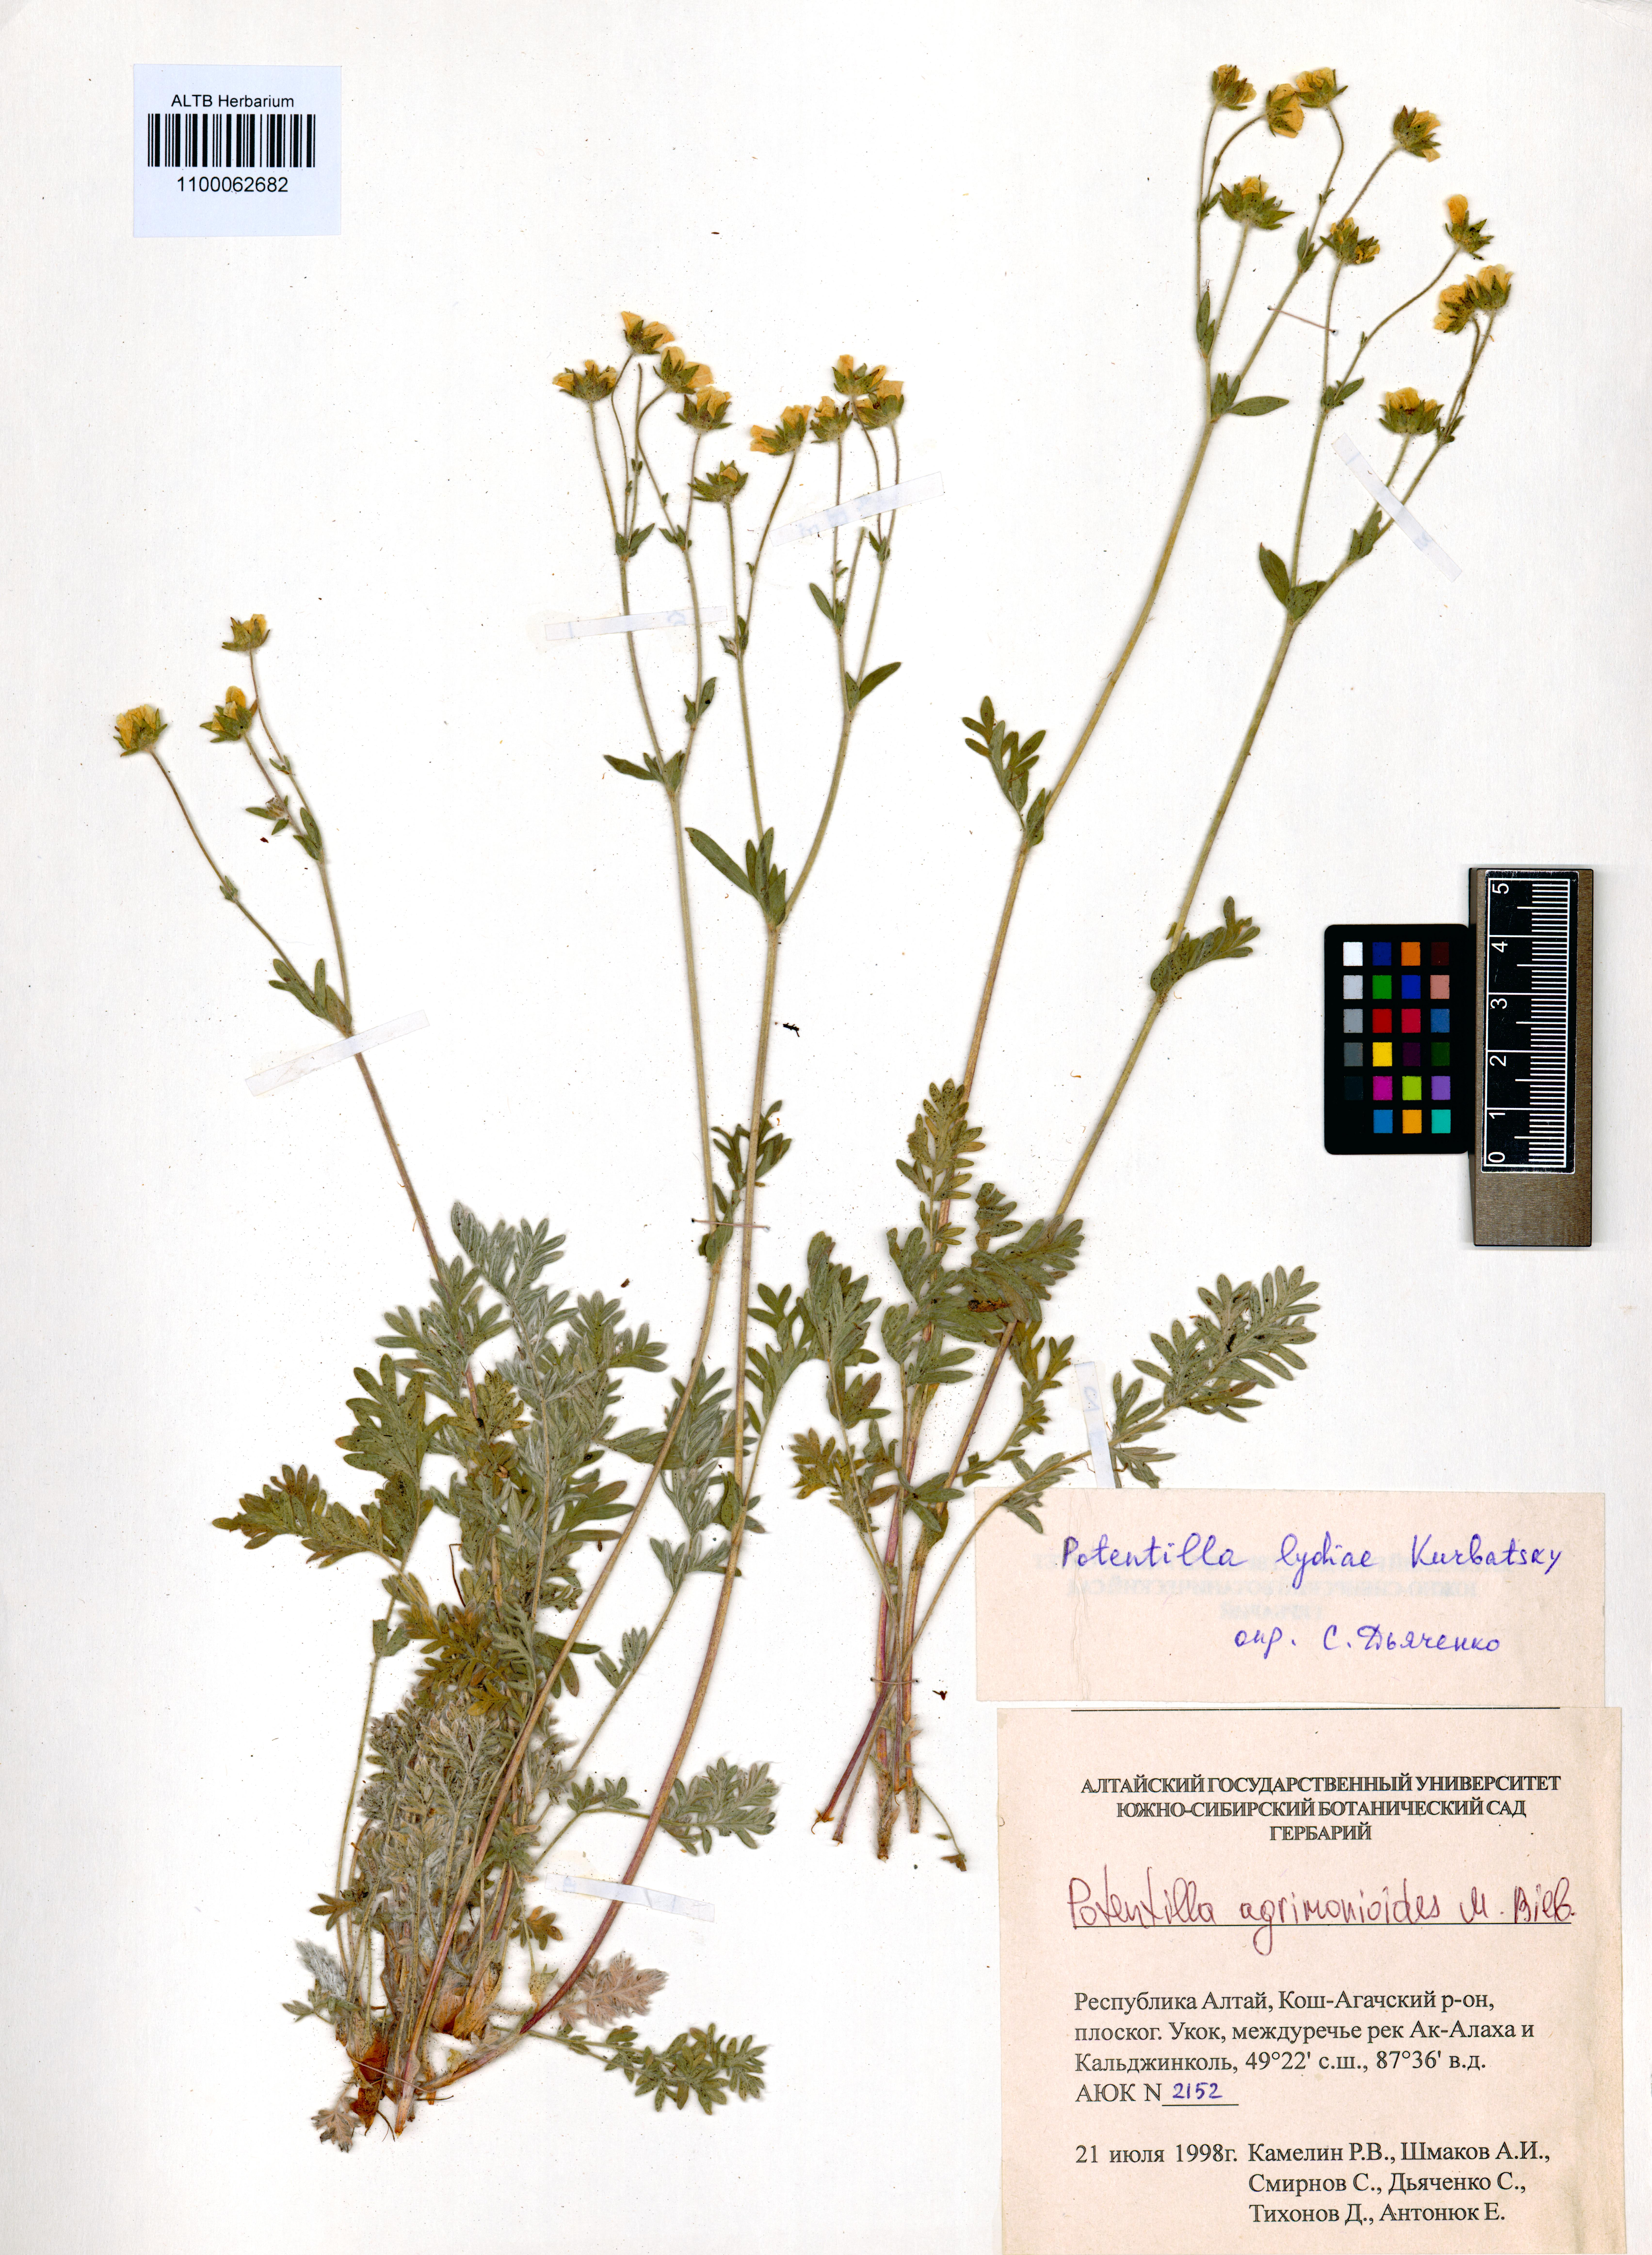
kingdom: Plantae
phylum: Tracheophyta
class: Magnoliopsida
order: Rosales
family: Rosaceae
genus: Potentilla
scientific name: Potentilla agrimonioides
